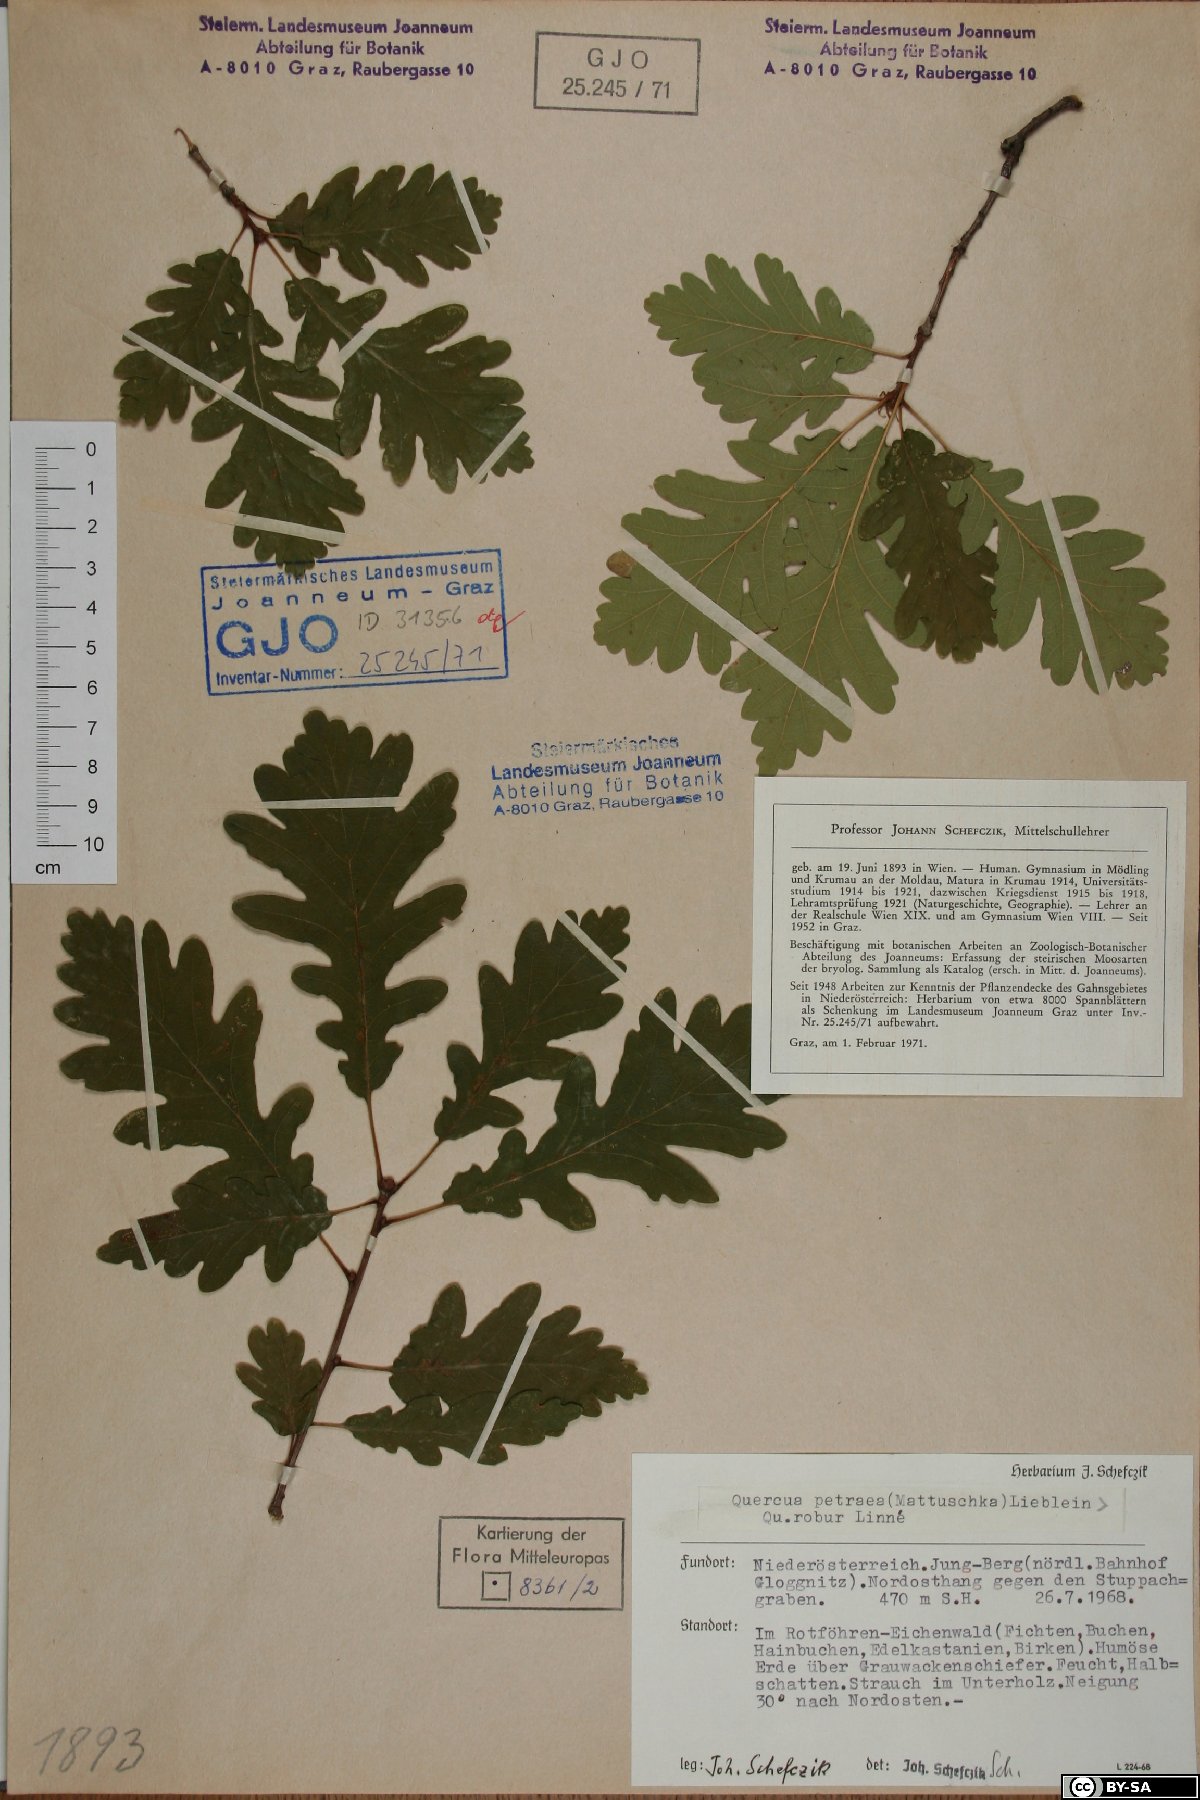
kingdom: Plantae
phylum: Tracheophyta
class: Magnoliopsida
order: Fagales
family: Fagaceae
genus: Quercus
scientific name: Quercus petraea
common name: Sessile oak
